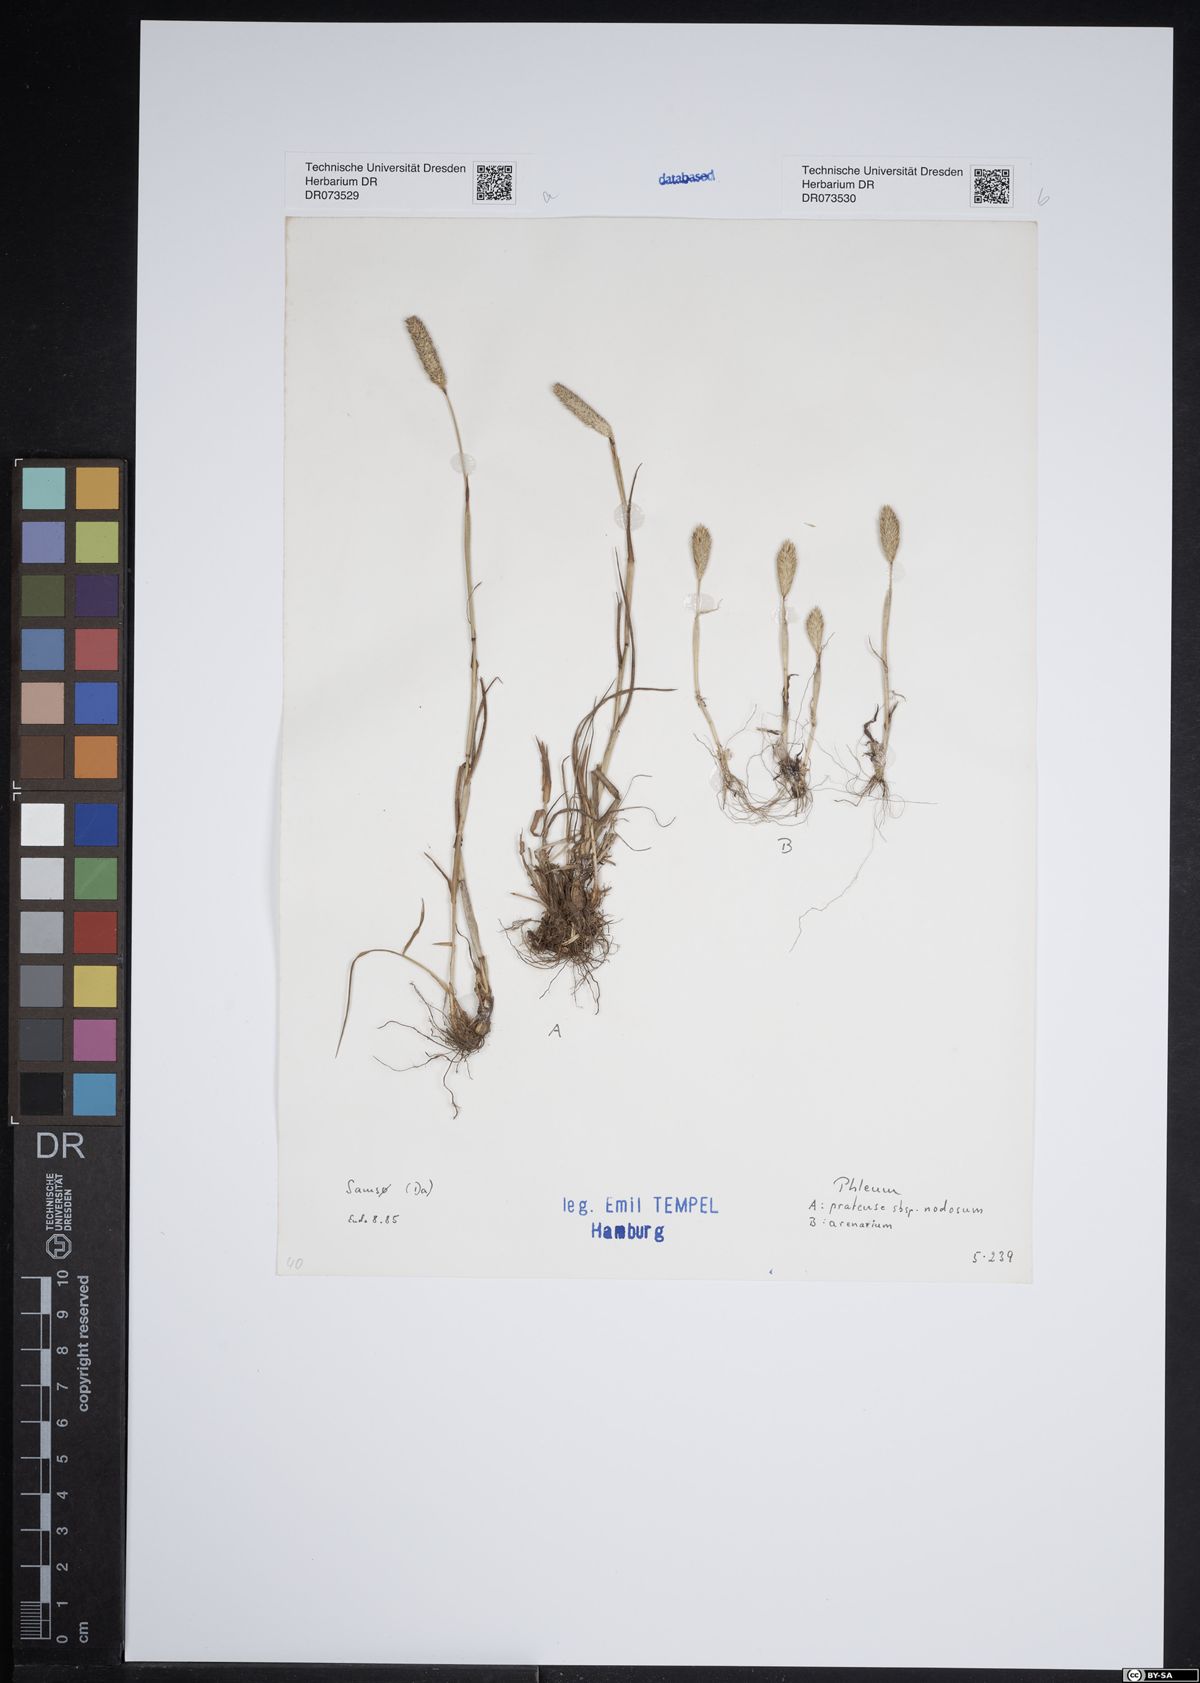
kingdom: Plantae
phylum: Tracheophyta
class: Liliopsida
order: Poales
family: Poaceae
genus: Phleum
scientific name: Phleum pratense
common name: Timothy grass
